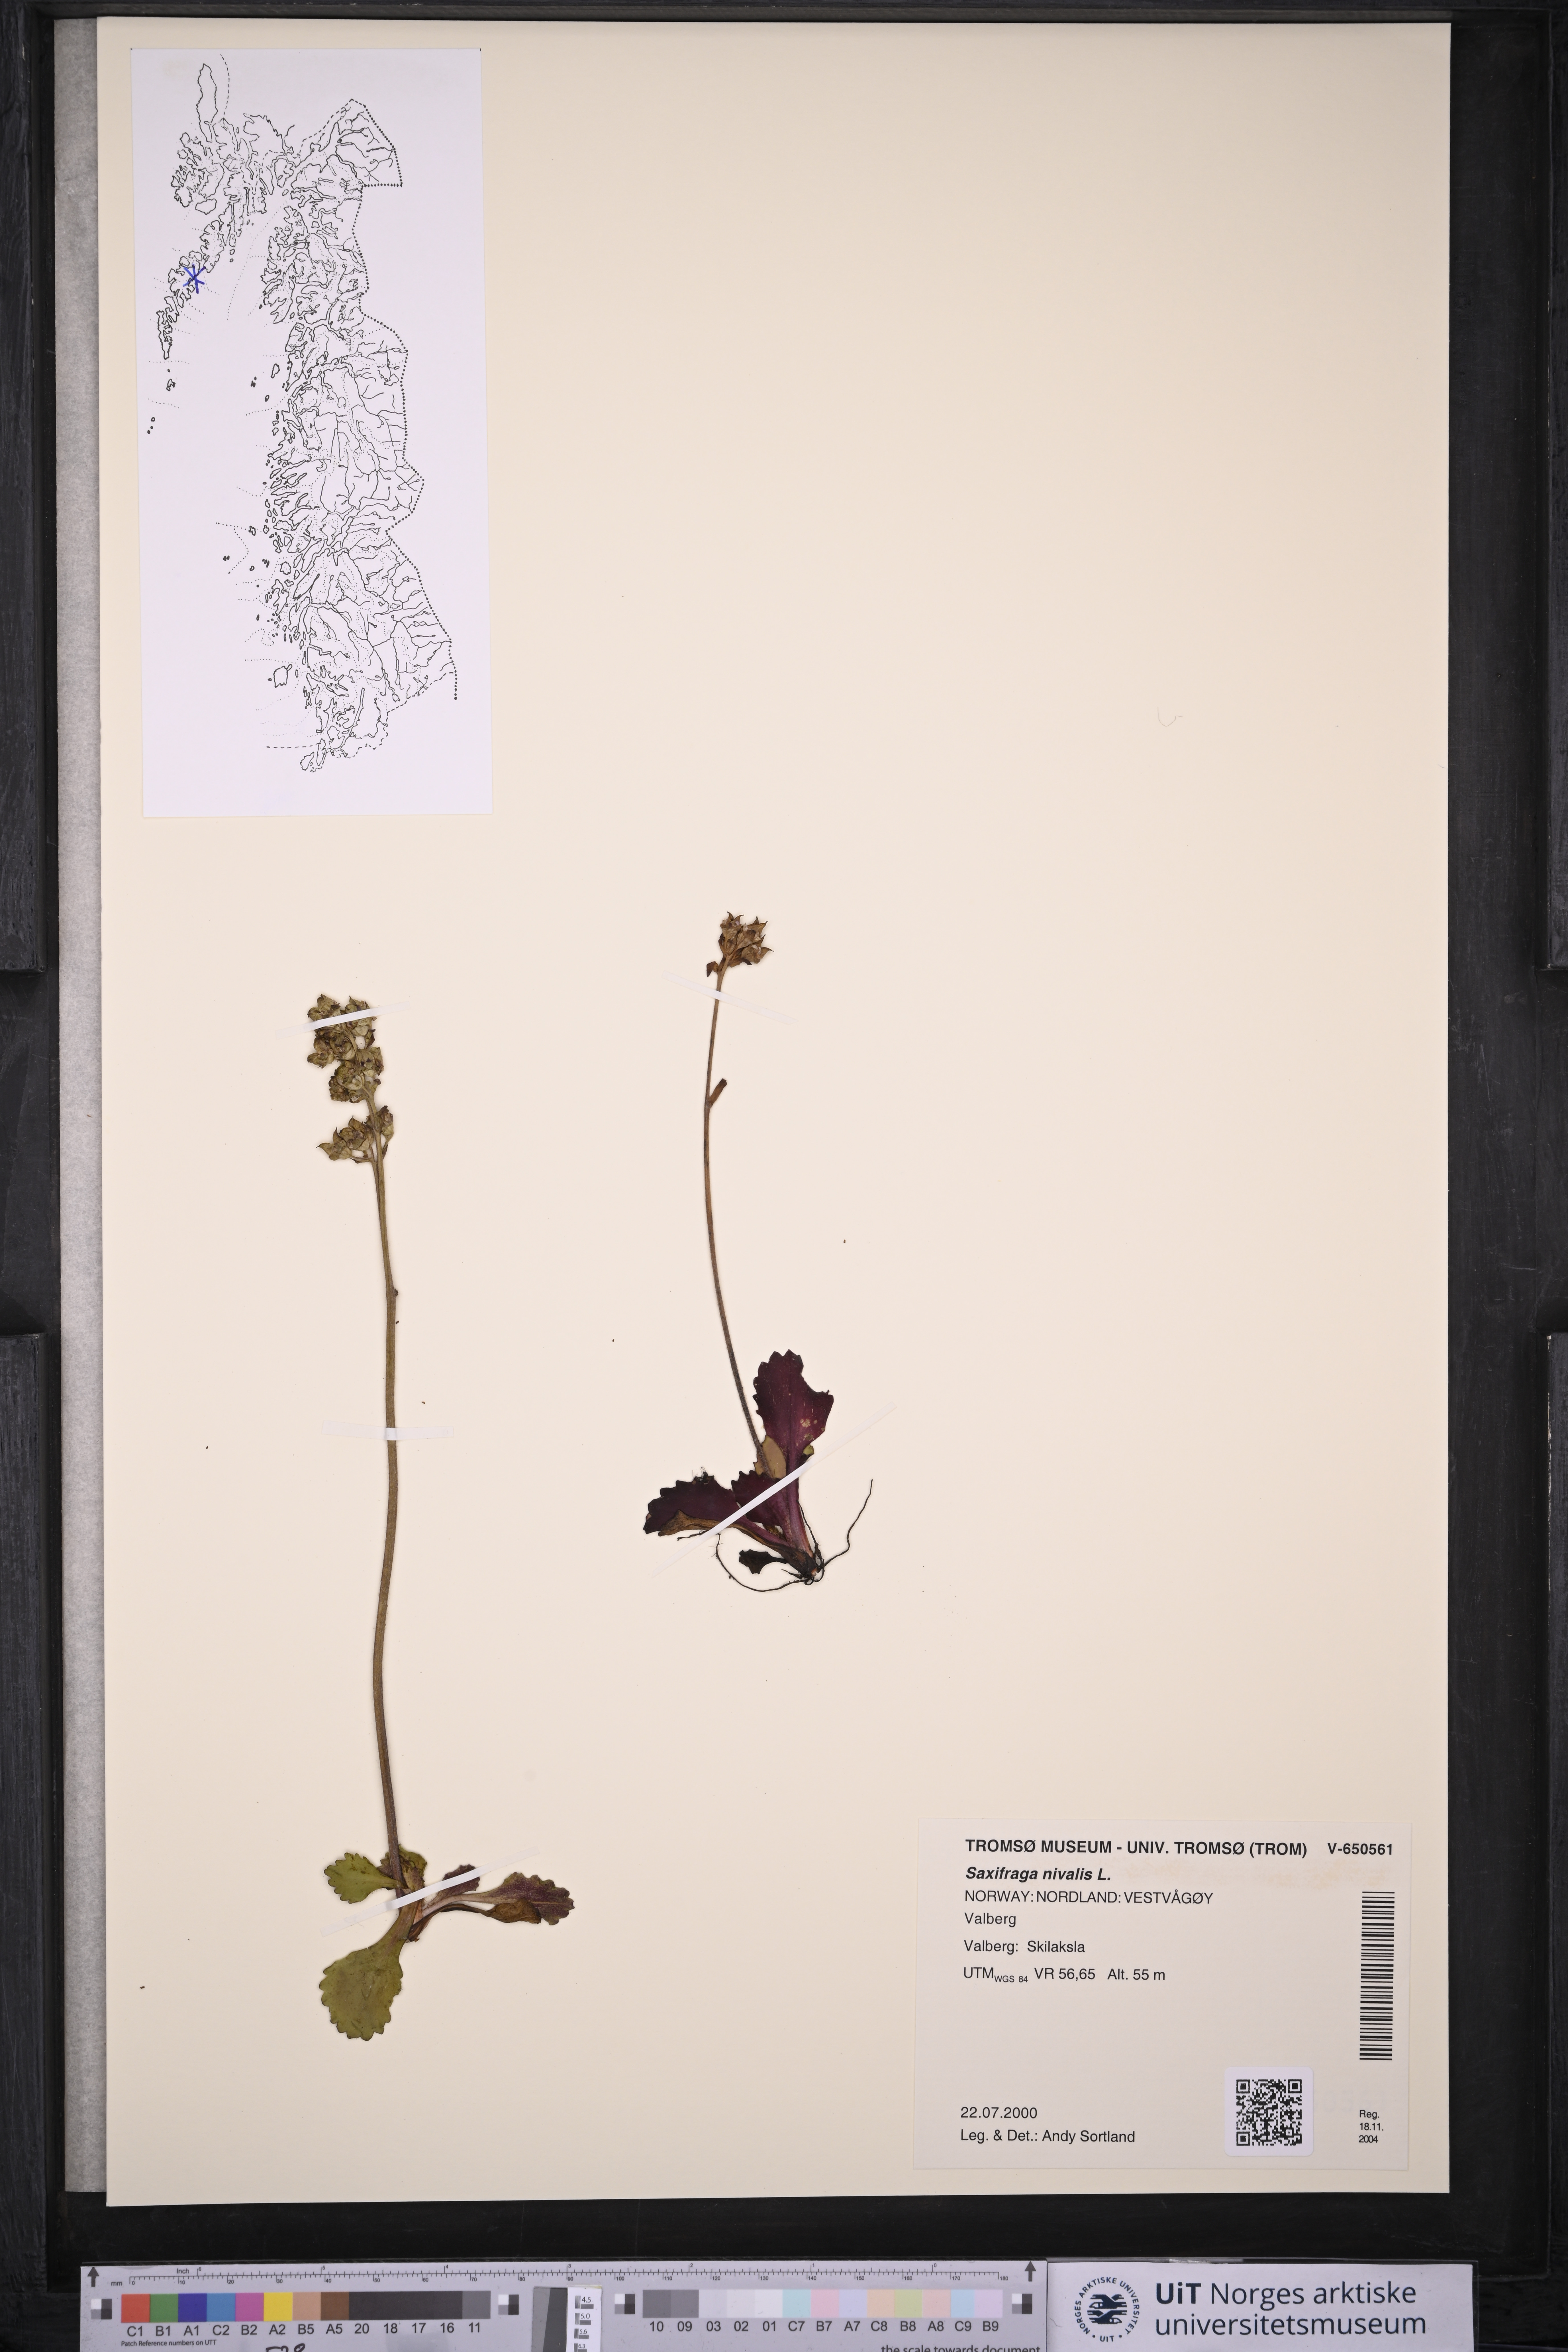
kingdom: Plantae
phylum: Tracheophyta
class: Magnoliopsida
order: Saxifragales
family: Saxifragaceae
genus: Micranthes
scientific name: Micranthes nivalis
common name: Alpine saxifrage
